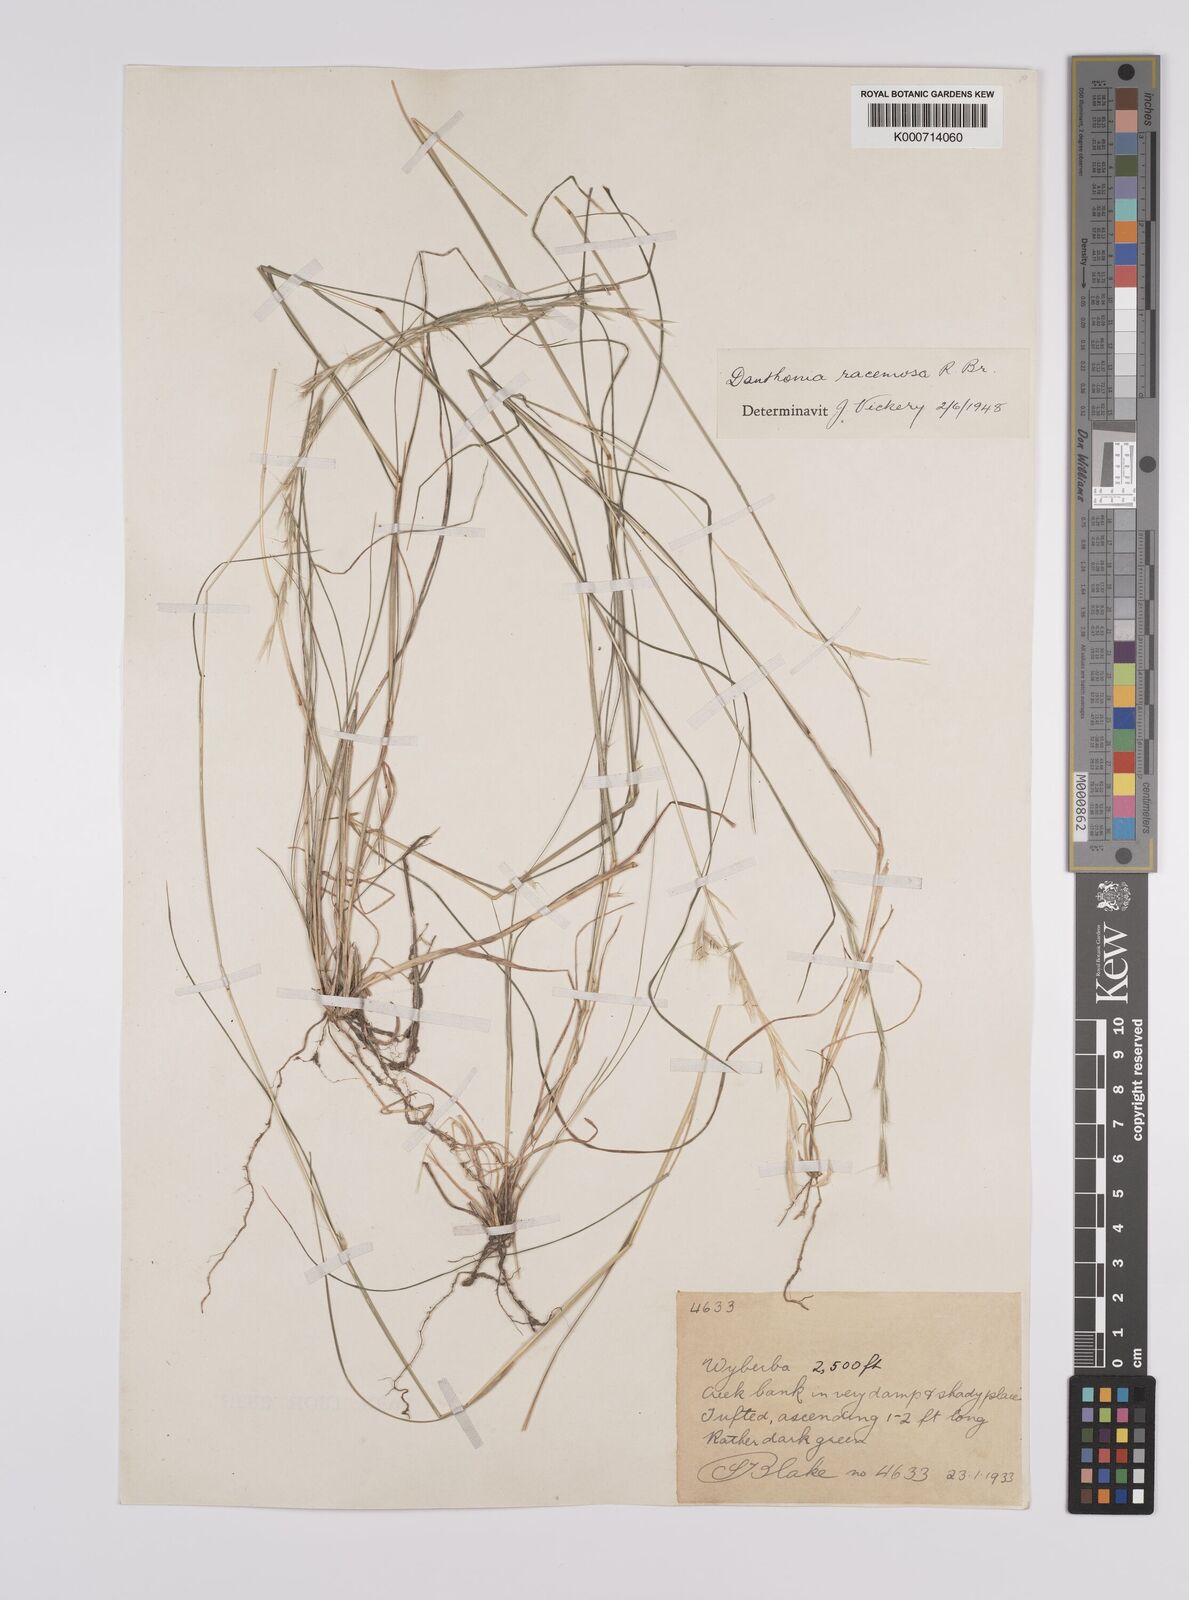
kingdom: Plantae
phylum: Tracheophyta
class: Liliopsida
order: Poales
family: Poaceae
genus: Rytidosperma
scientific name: Rytidosperma racemosum
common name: Wallaby-grass
